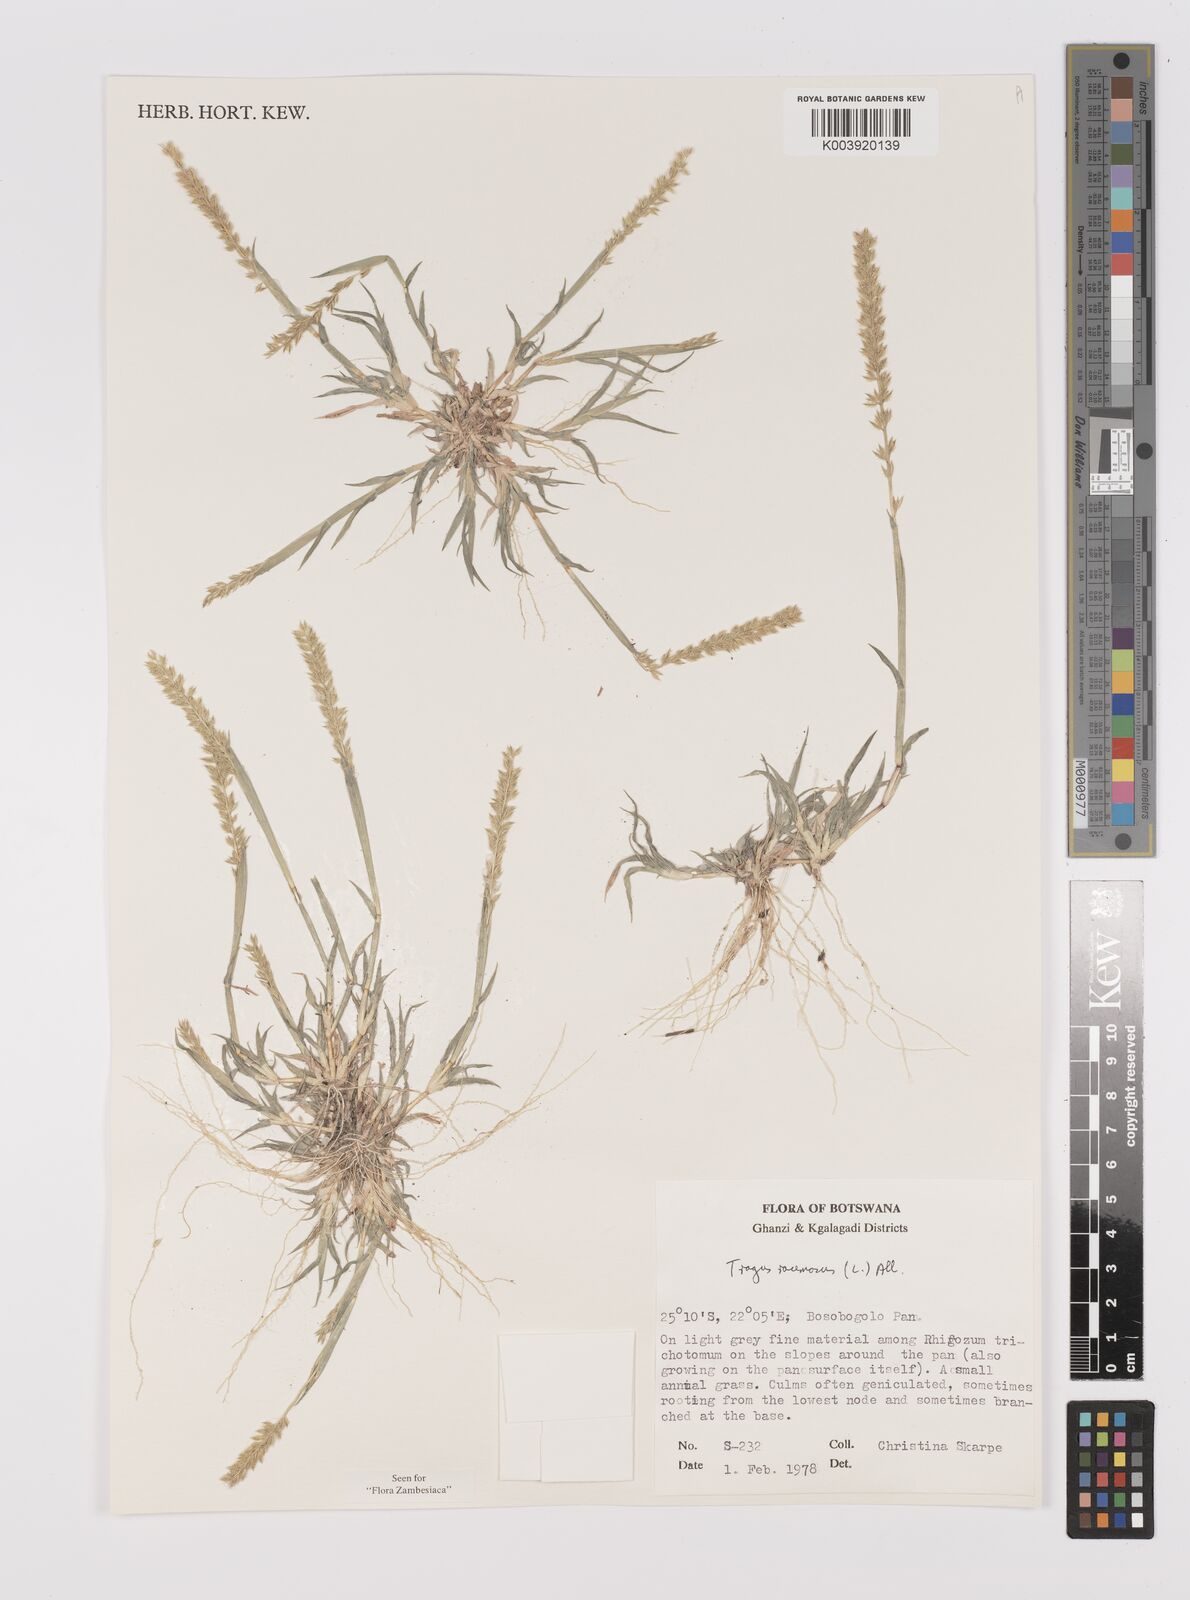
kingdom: Plantae
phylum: Tracheophyta
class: Liliopsida
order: Poales
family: Poaceae
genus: Tragus
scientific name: Tragus racemosus
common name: European bur-grass
